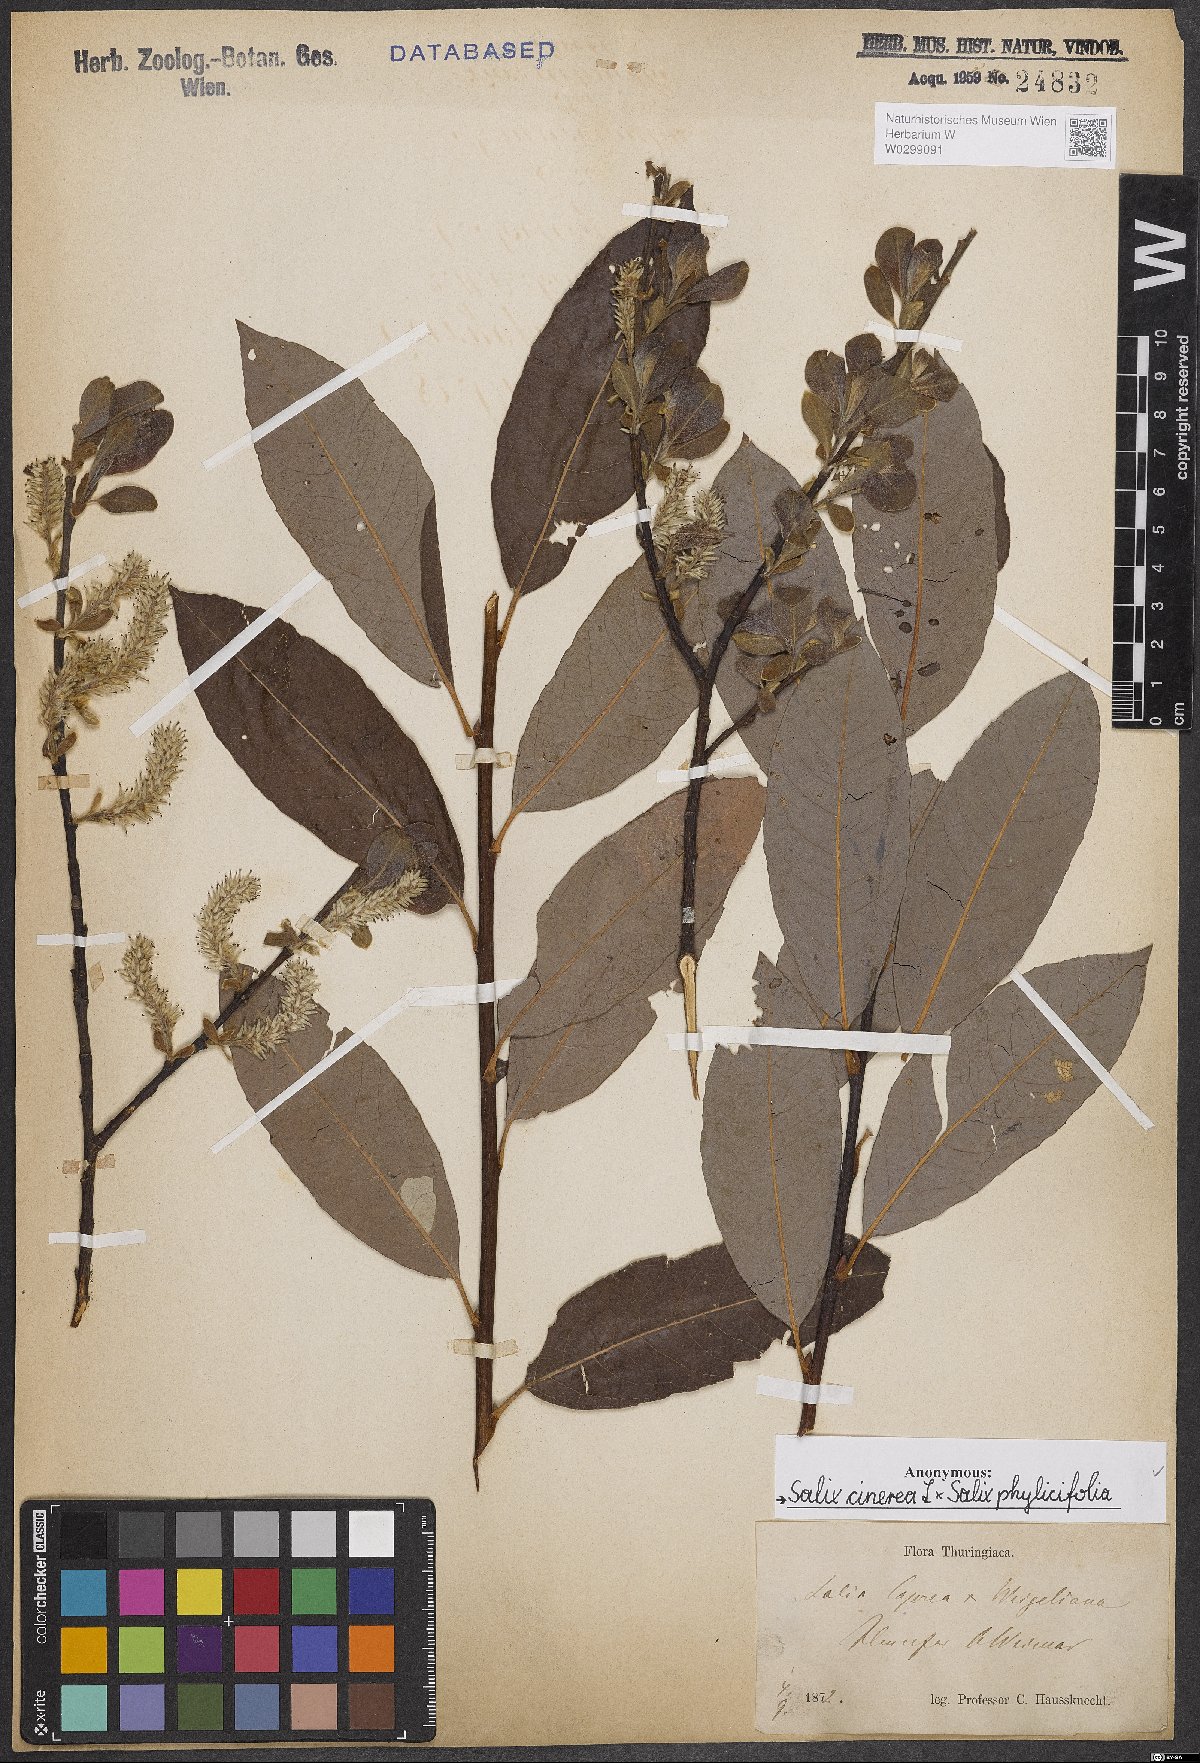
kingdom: Plantae
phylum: Tracheophyta
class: Magnoliopsida
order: Malpighiales
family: Salicaceae
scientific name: Salicaceae
